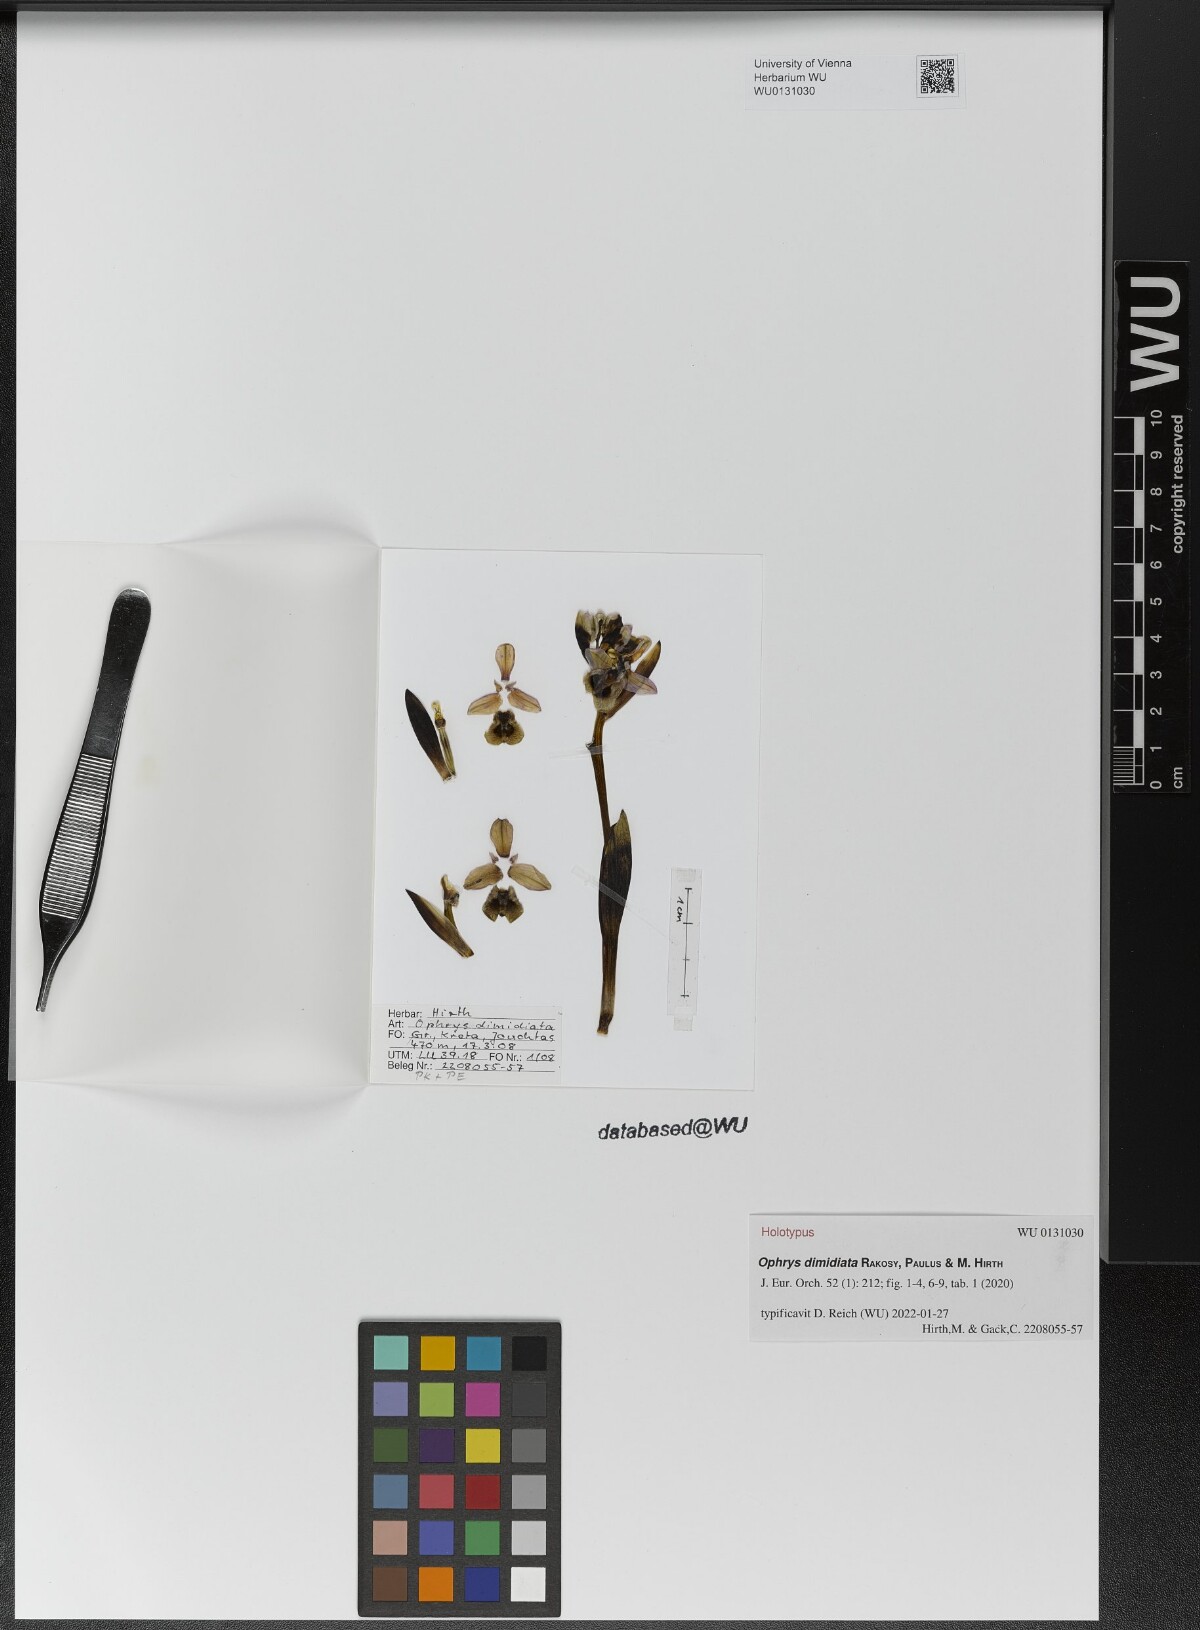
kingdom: Plantae
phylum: Tracheophyta
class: Liliopsida
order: Asparagales
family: Orchidaceae
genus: Ophrys
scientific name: Ophrys tenthredinifera
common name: Sawfly orchid
